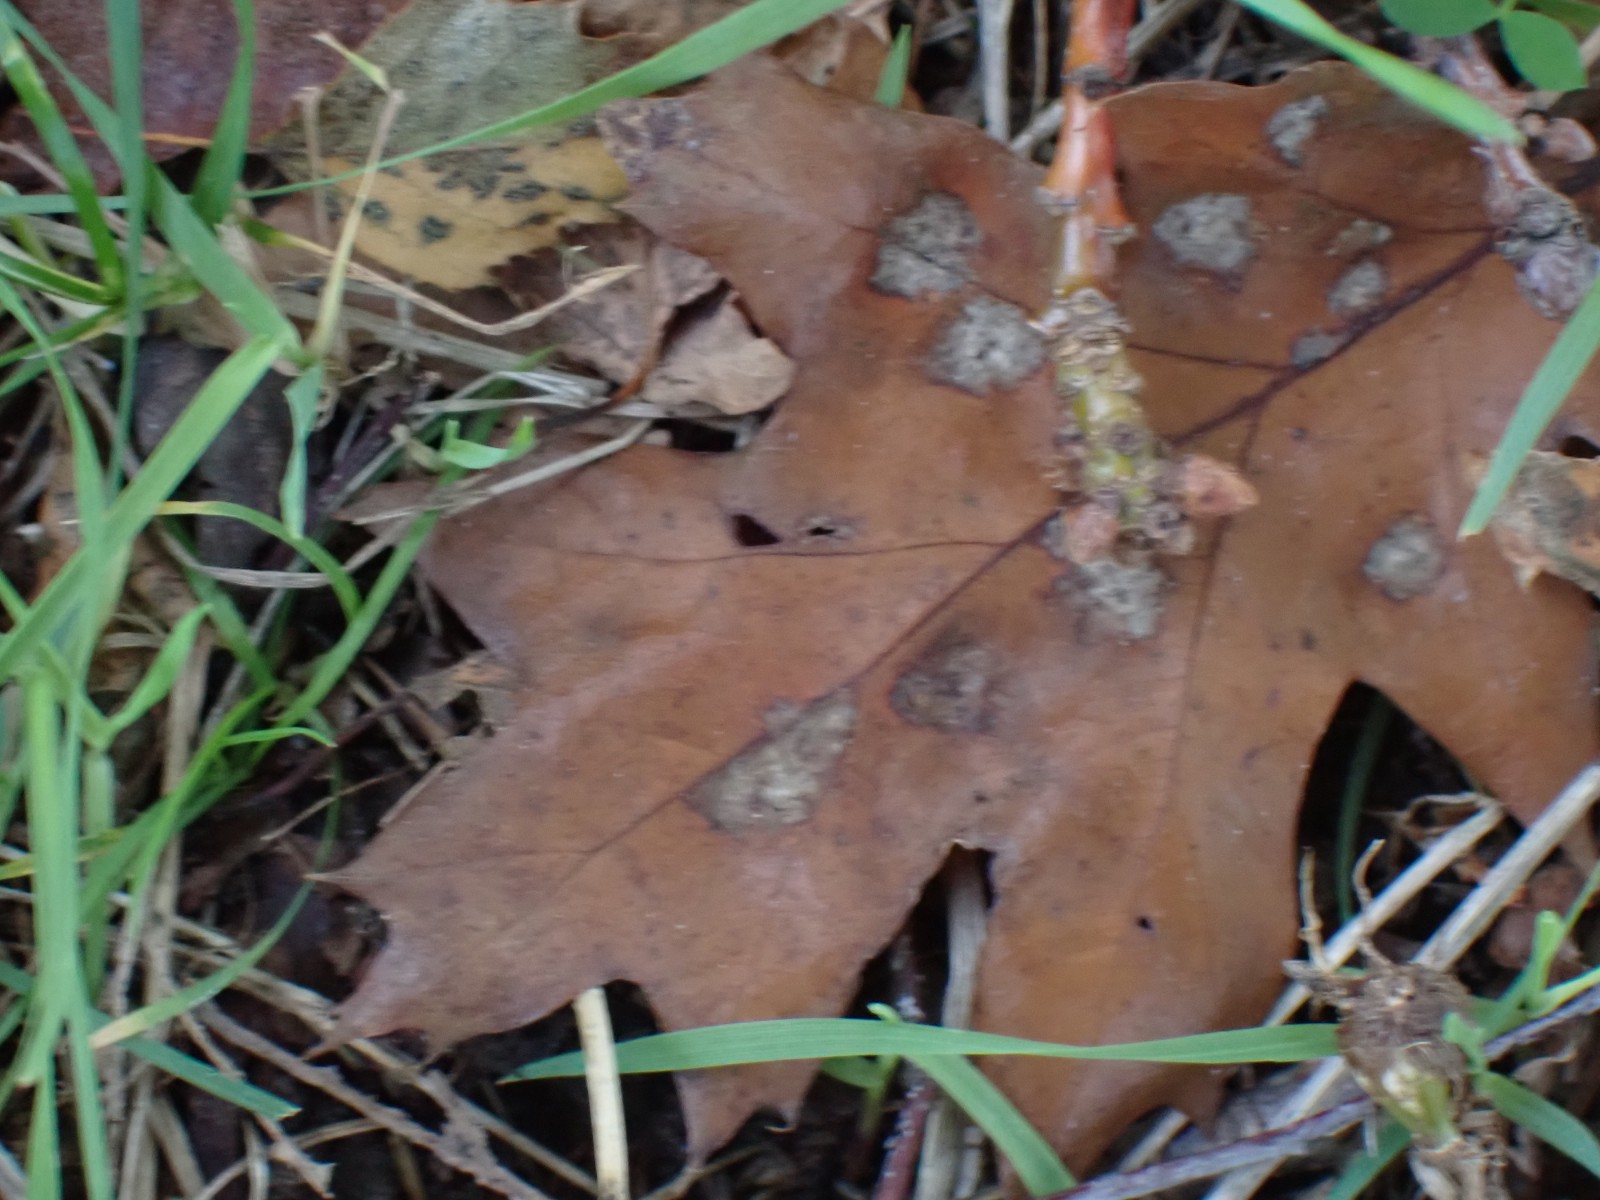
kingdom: Fungi
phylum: Ascomycota
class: Taphrinomycetes
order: Taphrinales
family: Taphrinaceae
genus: Taphrina
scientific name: Taphrina caerulescens
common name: Oak leaf blister
